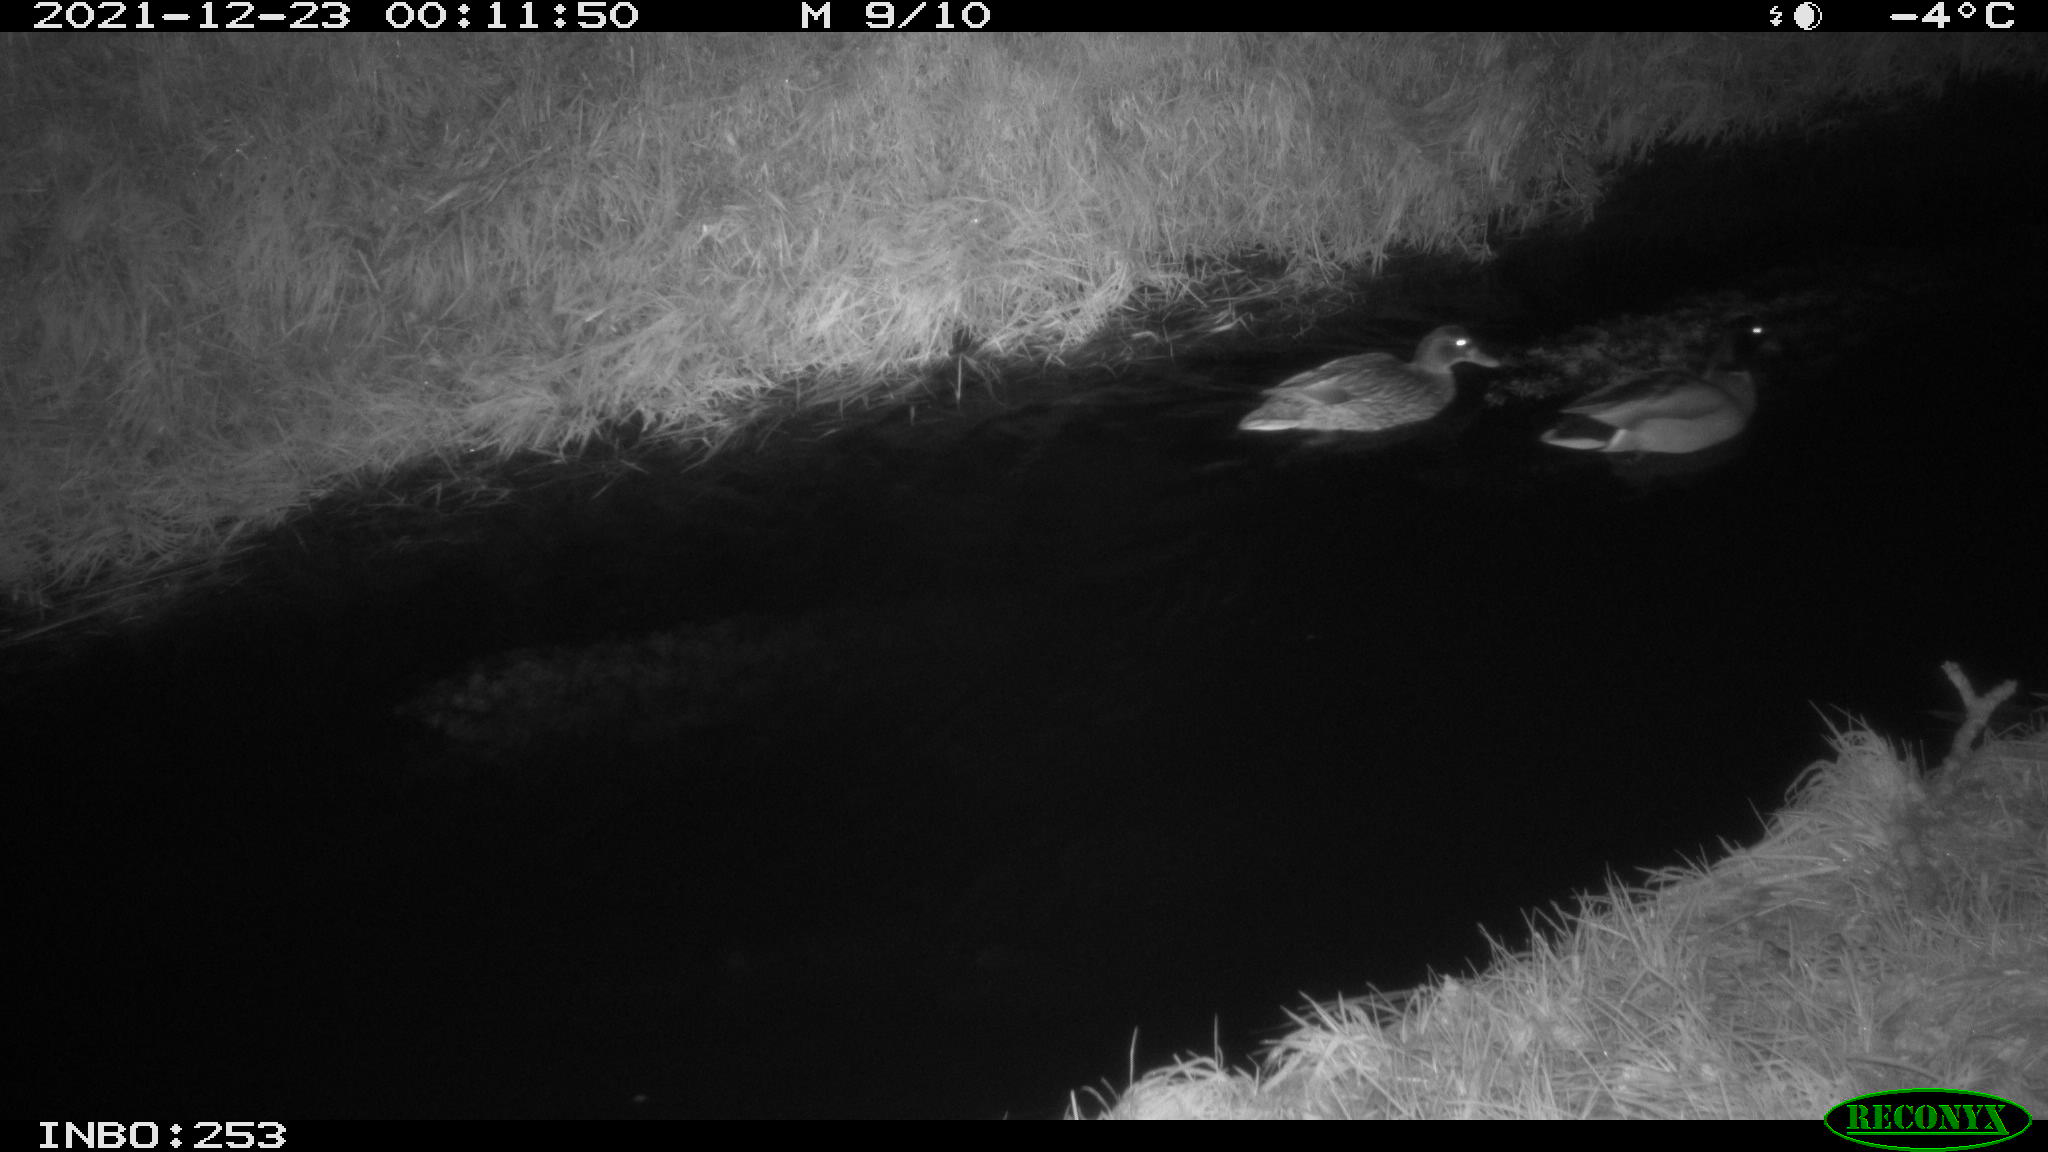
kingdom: Animalia
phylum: Chordata
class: Aves
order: Anseriformes
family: Anatidae
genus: Anas
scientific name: Anas
